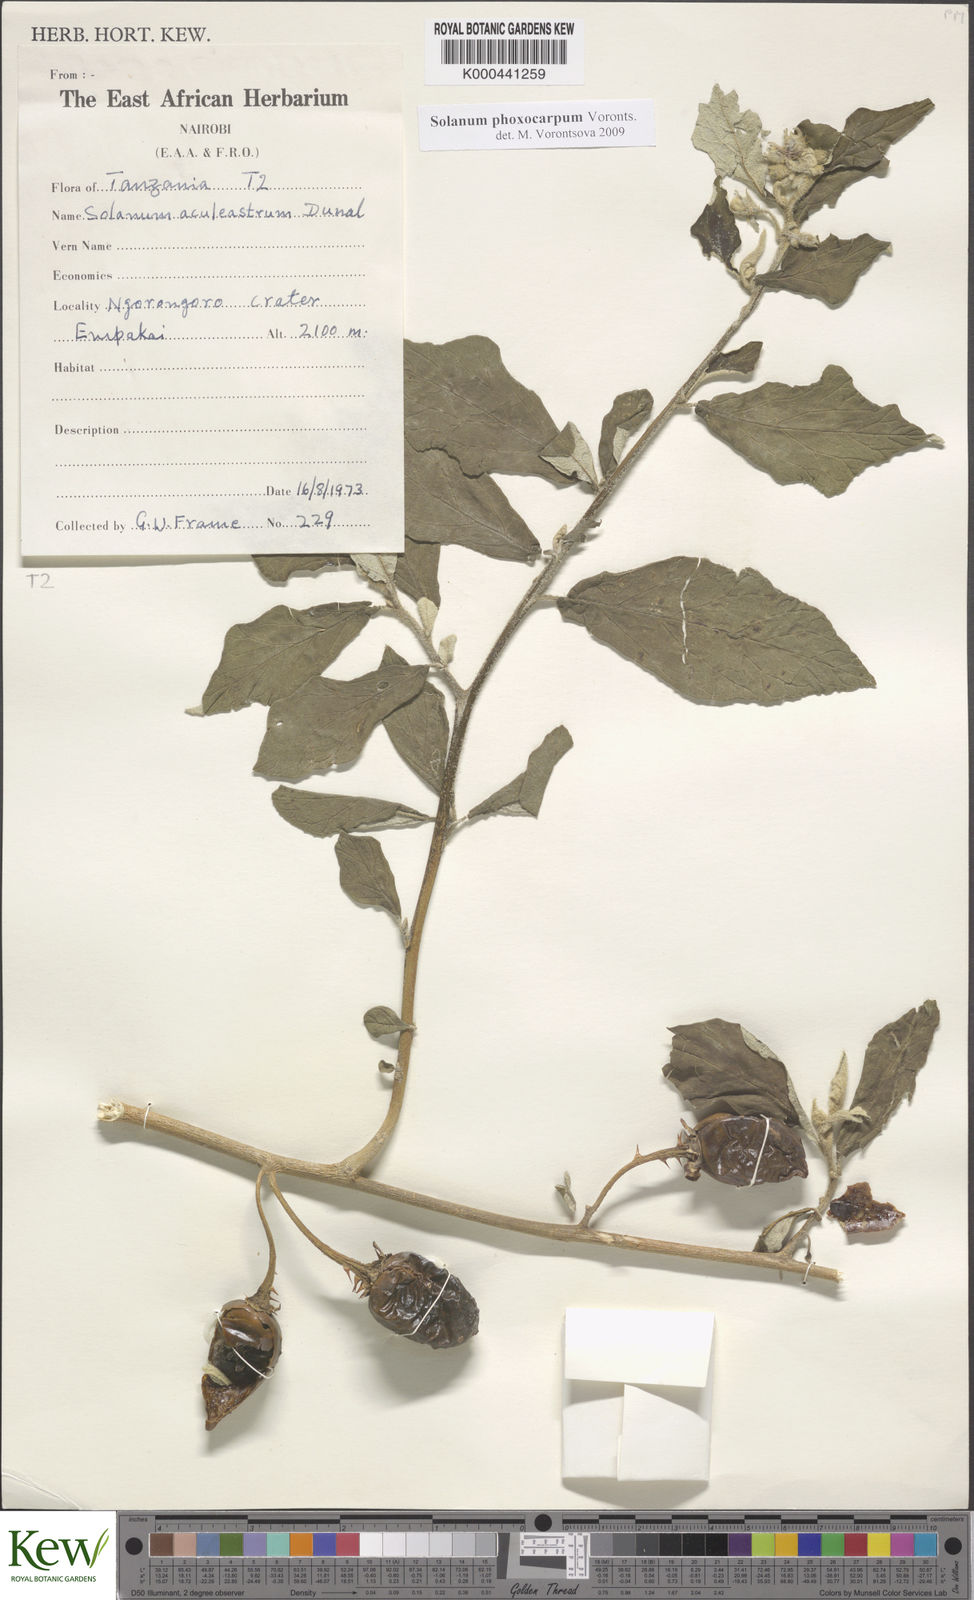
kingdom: Plantae
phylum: Tracheophyta
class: Magnoliopsida
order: Solanales
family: Solanaceae
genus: Solanum
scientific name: Solanum phoxocarpum
